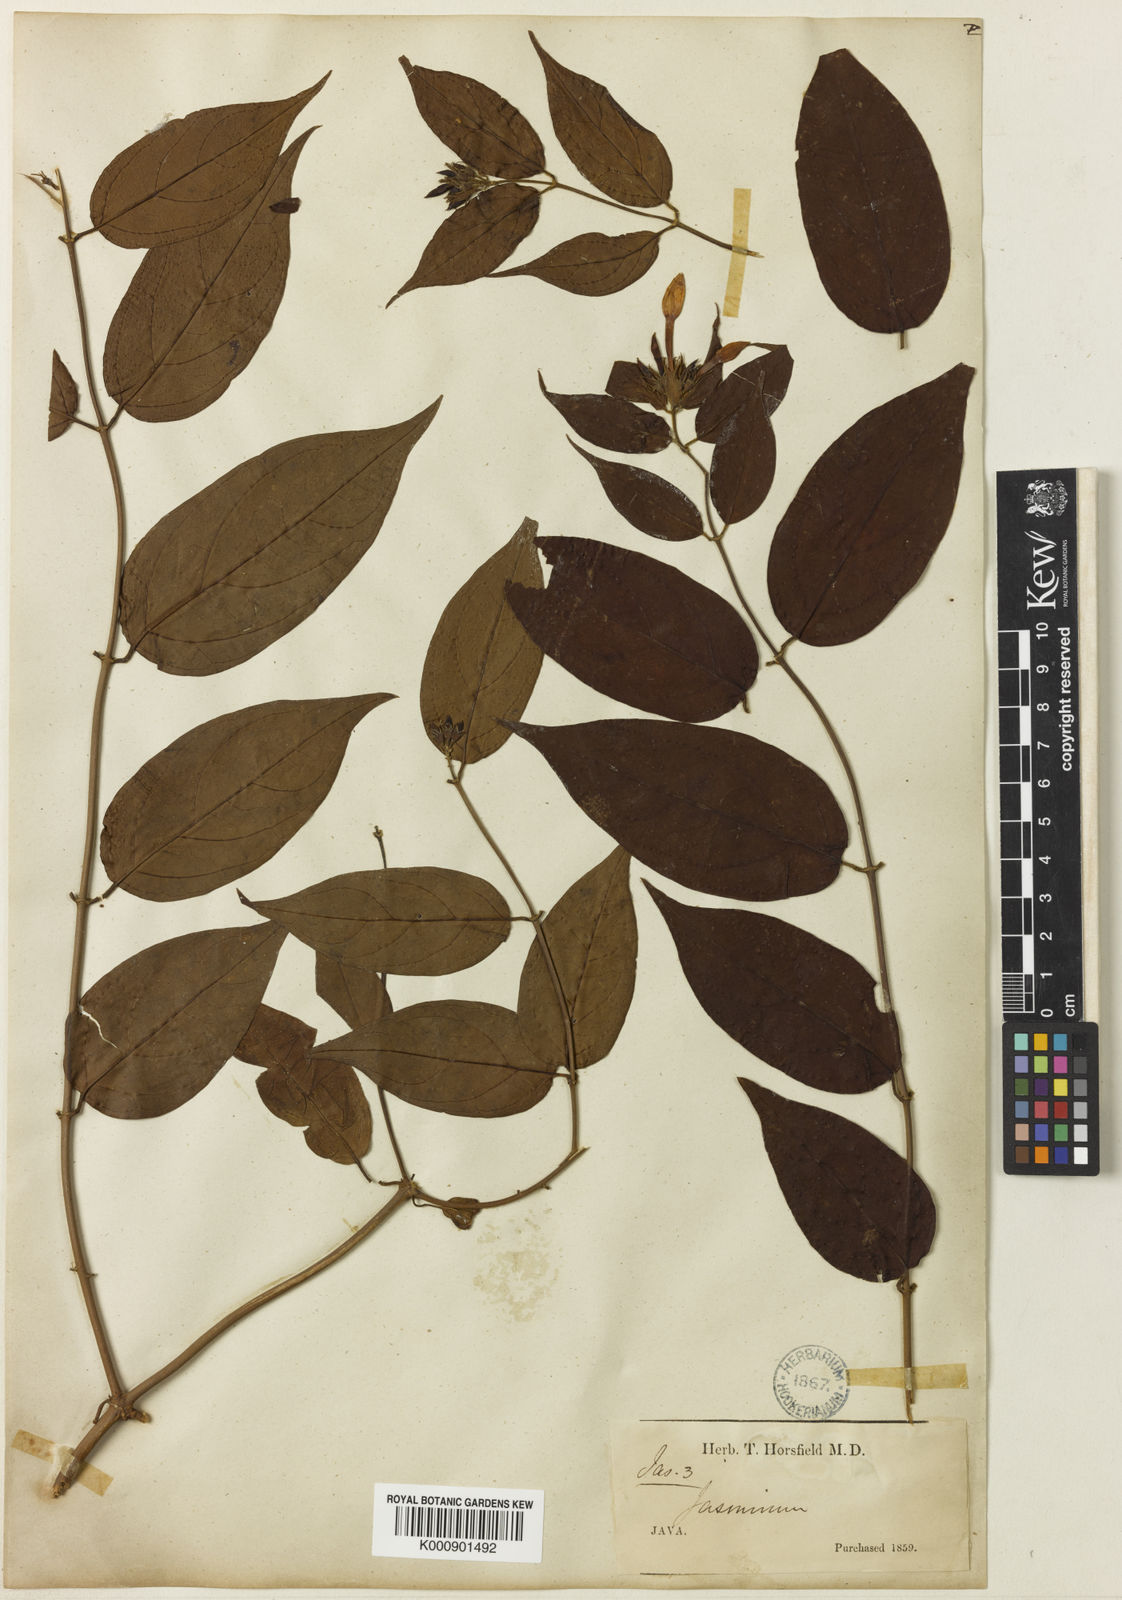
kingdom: Plantae
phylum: Tracheophyta
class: Magnoliopsida
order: Lamiales
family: Oleaceae
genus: Jasminum
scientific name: Jasminum elongatum
